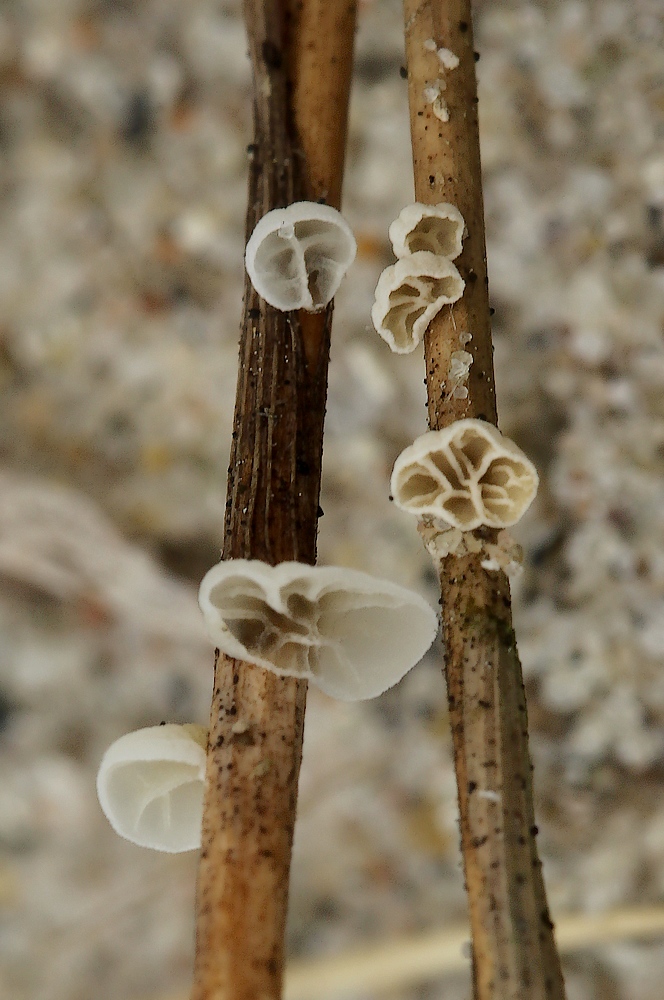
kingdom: Fungi
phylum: Basidiomycota
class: Agaricomycetes
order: Agaricales
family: Marasmiaceae
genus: Campanella
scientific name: Campanella caesia
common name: bruskøre
